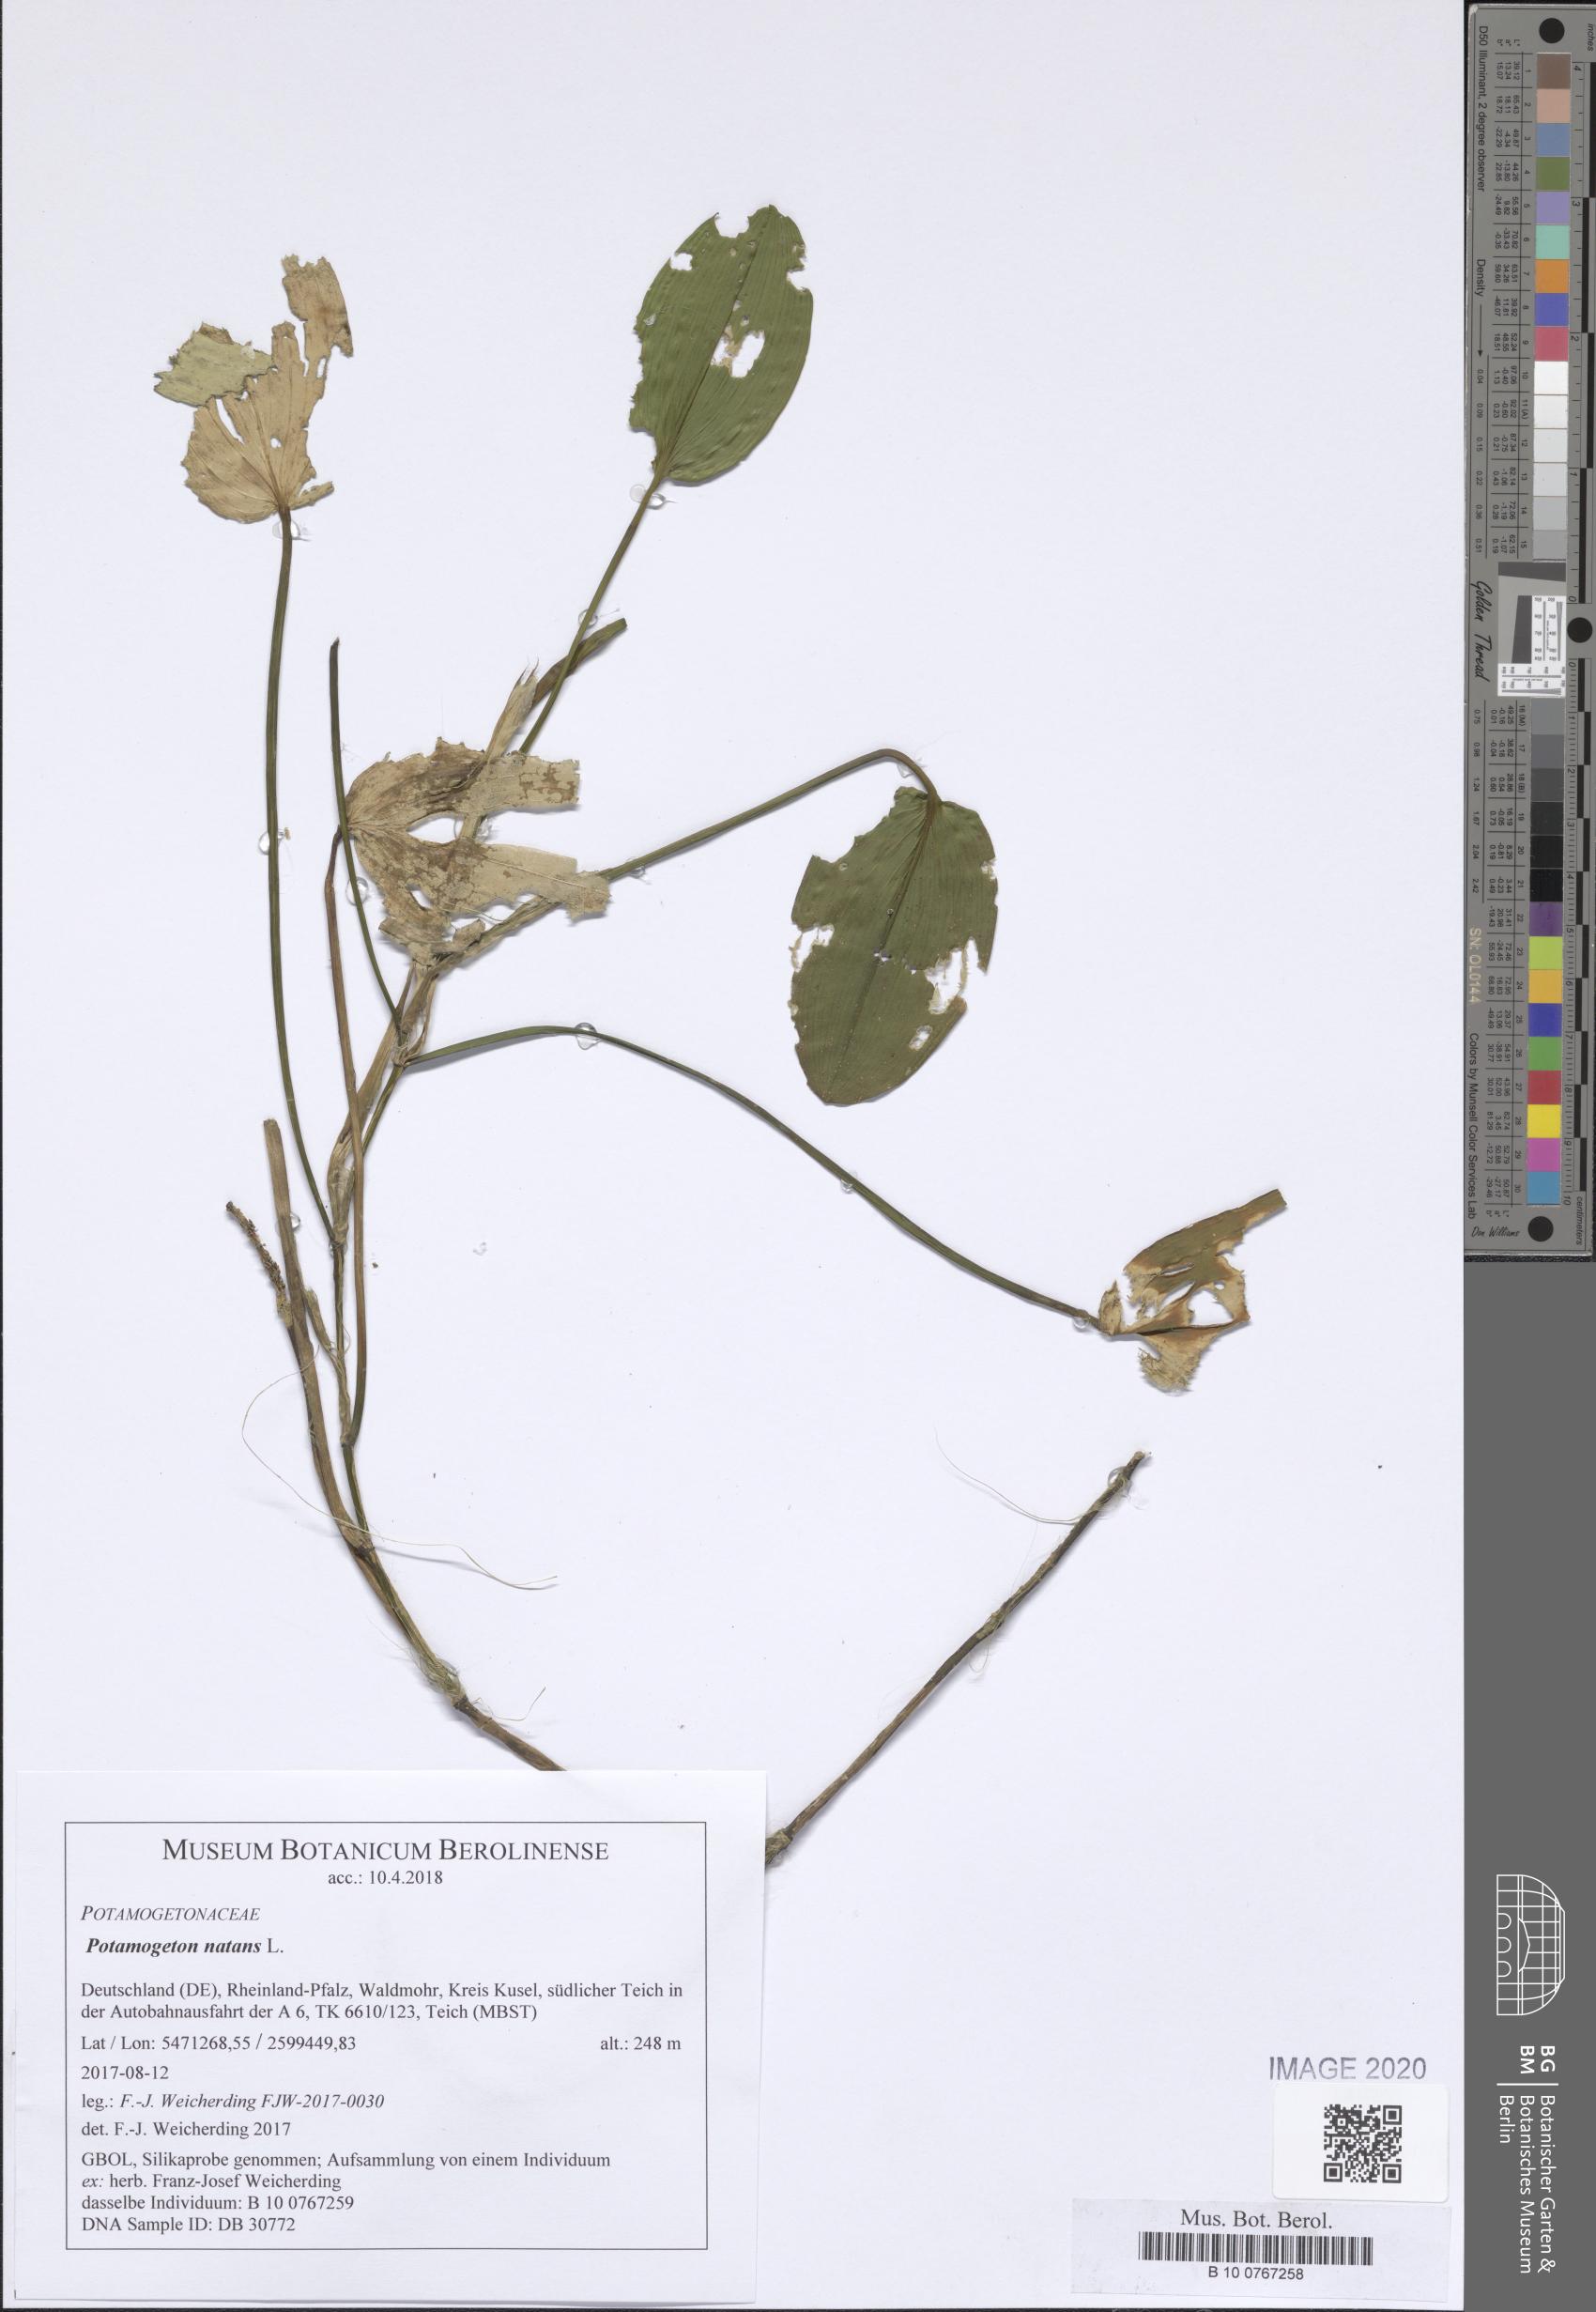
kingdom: Plantae
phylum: Tracheophyta
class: Liliopsida
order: Alismatales
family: Potamogetonaceae
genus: Potamogeton
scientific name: Potamogeton natans
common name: Broad-leaved pondweed
